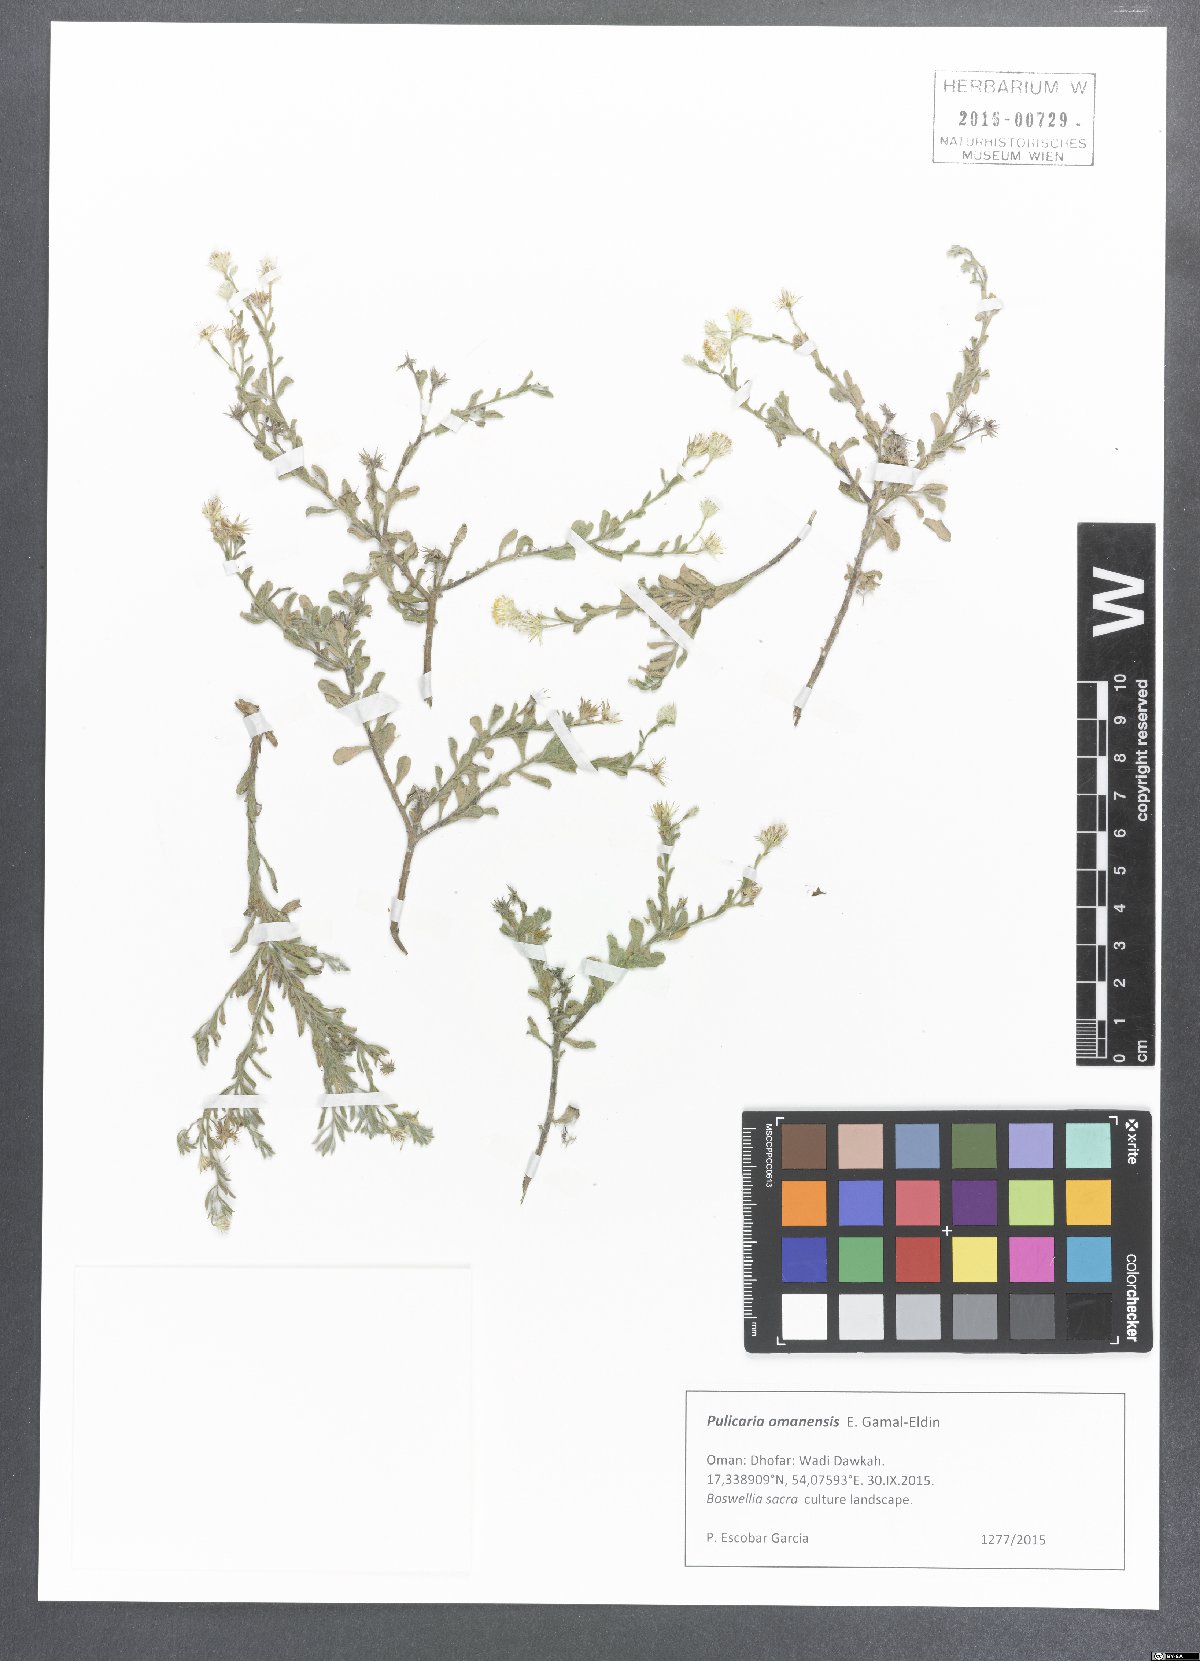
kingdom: Plantae
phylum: Tracheophyta
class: Magnoliopsida
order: Asterales
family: Asteraceae
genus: Pulicaria
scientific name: Pulicaria omanensis
